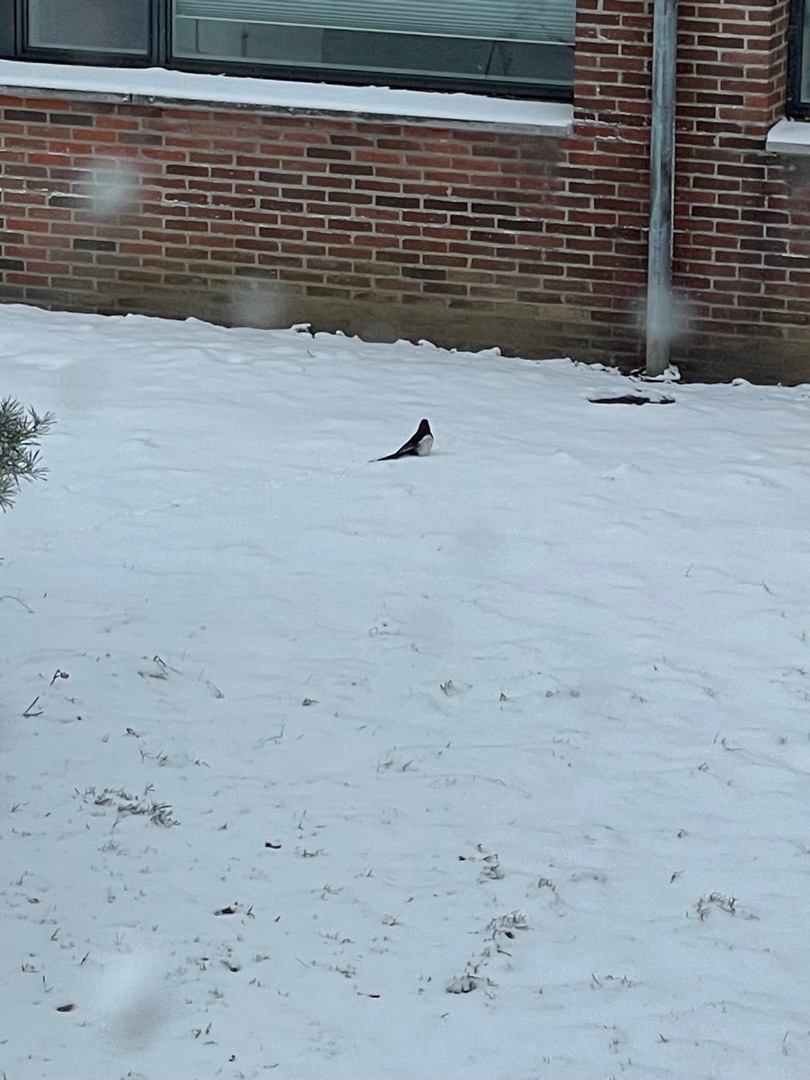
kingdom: Animalia
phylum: Chordata
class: Aves
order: Passeriformes
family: Corvidae
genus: Pica
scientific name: Pica pica
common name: Husskade
